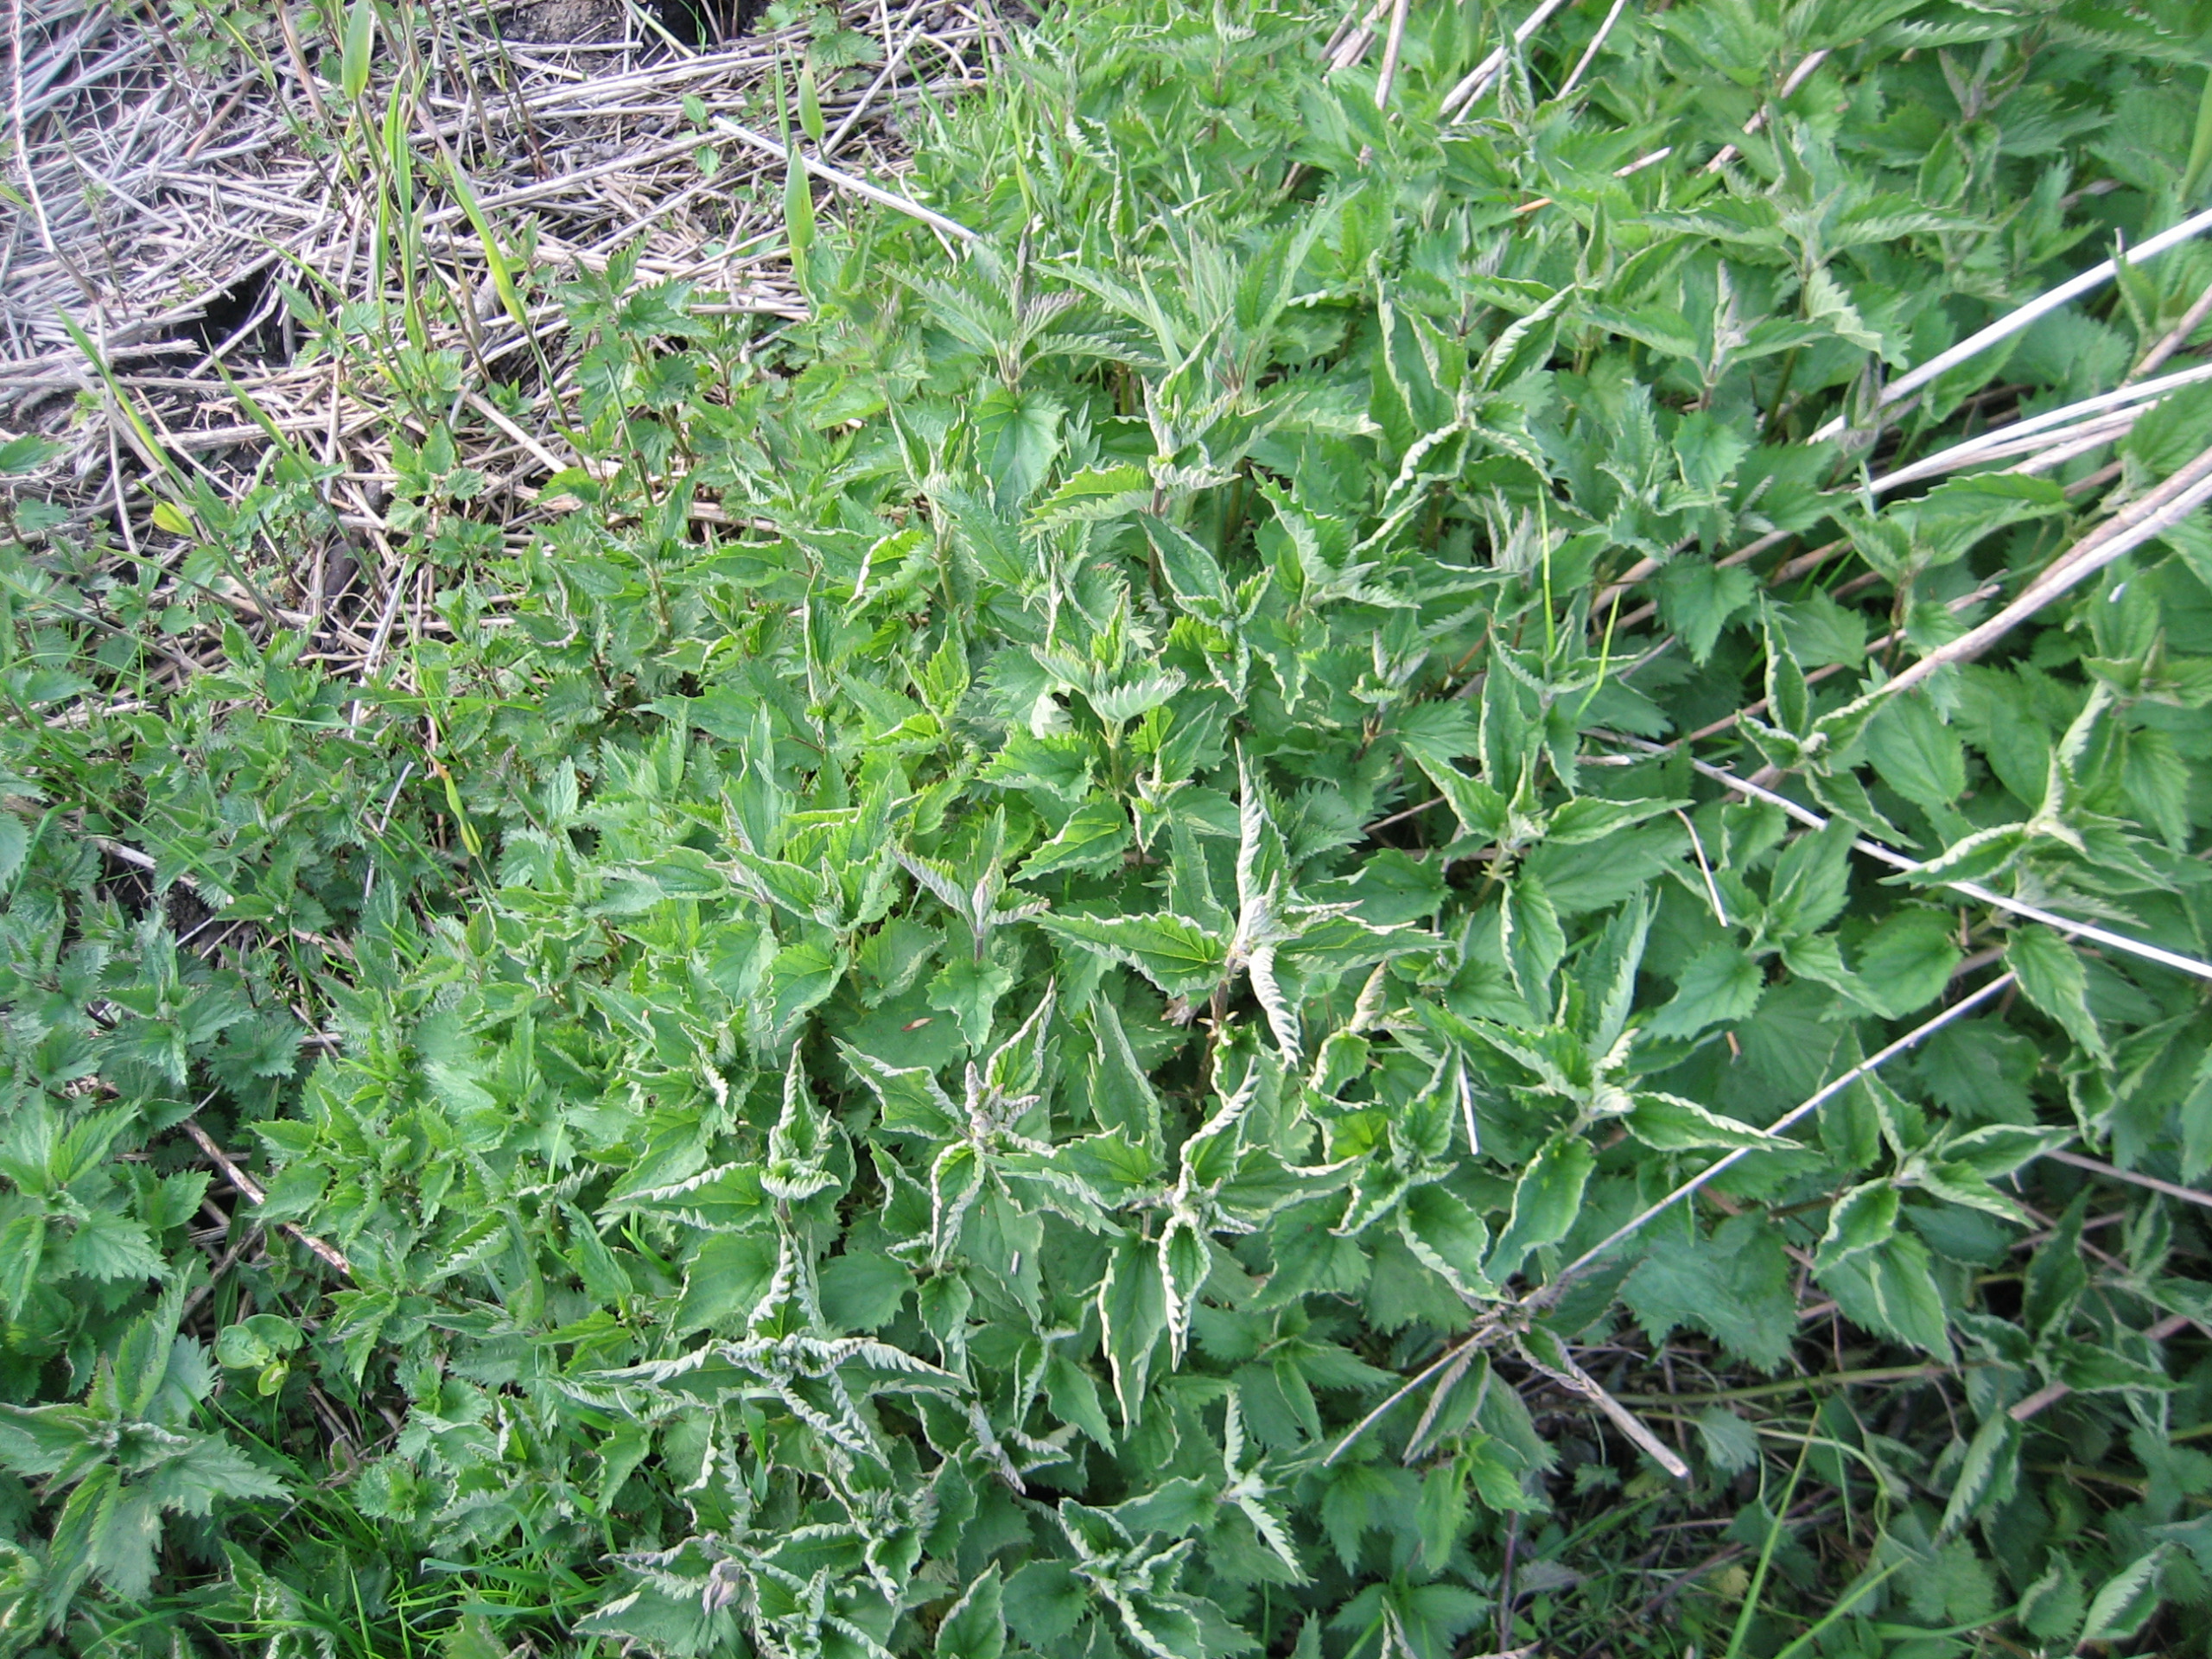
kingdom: Plantae
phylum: Tracheophyta
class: Magnoliopsida
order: Rosales
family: Urticaceae
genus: Urtica
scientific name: Urtica dioica
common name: Stor nælde
